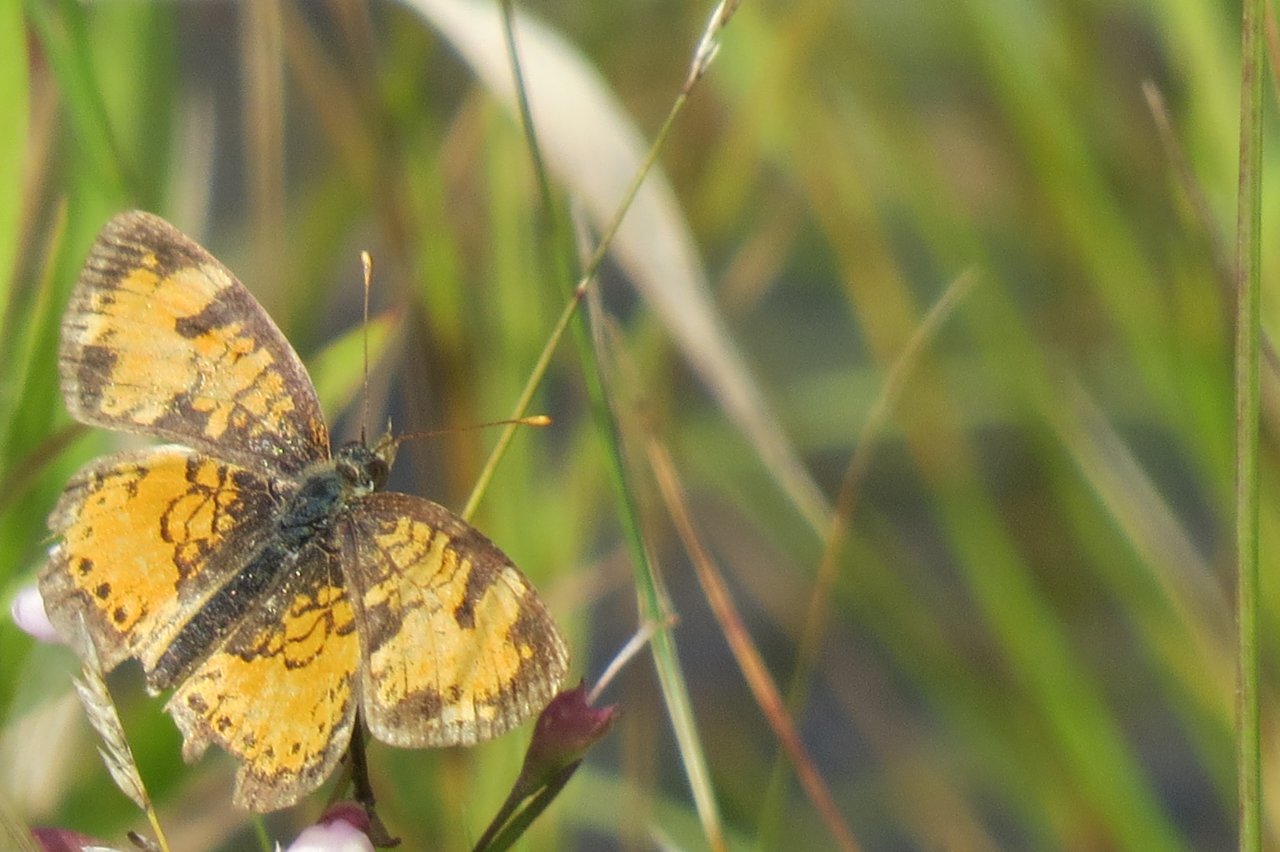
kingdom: Animalia
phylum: Arthropoda
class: Insecta
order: Lepidoptera
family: Nymphalidae
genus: Phyciodes
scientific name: Phyciodes tharos
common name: Northern Crescent
